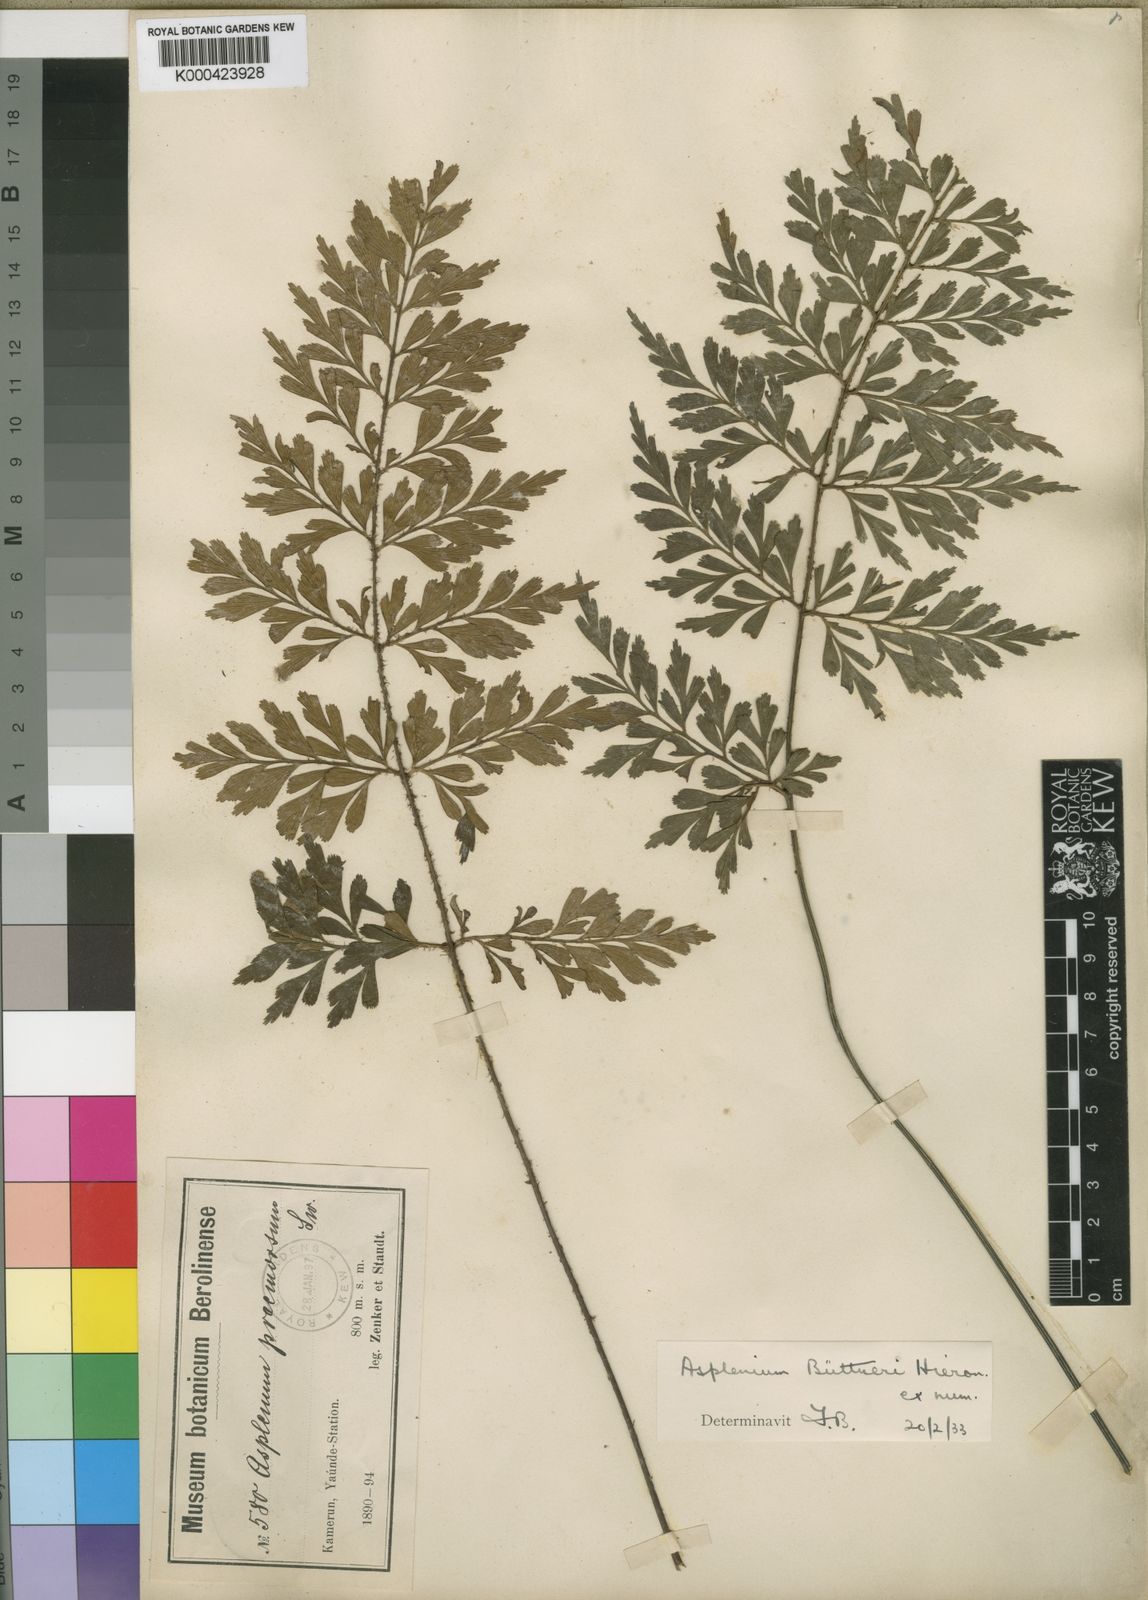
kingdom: Plantae
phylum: Tracheophyta
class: Polypodiopsida
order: Polypodiales
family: Aspleniaceae
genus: Asplenium
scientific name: Asplenium
